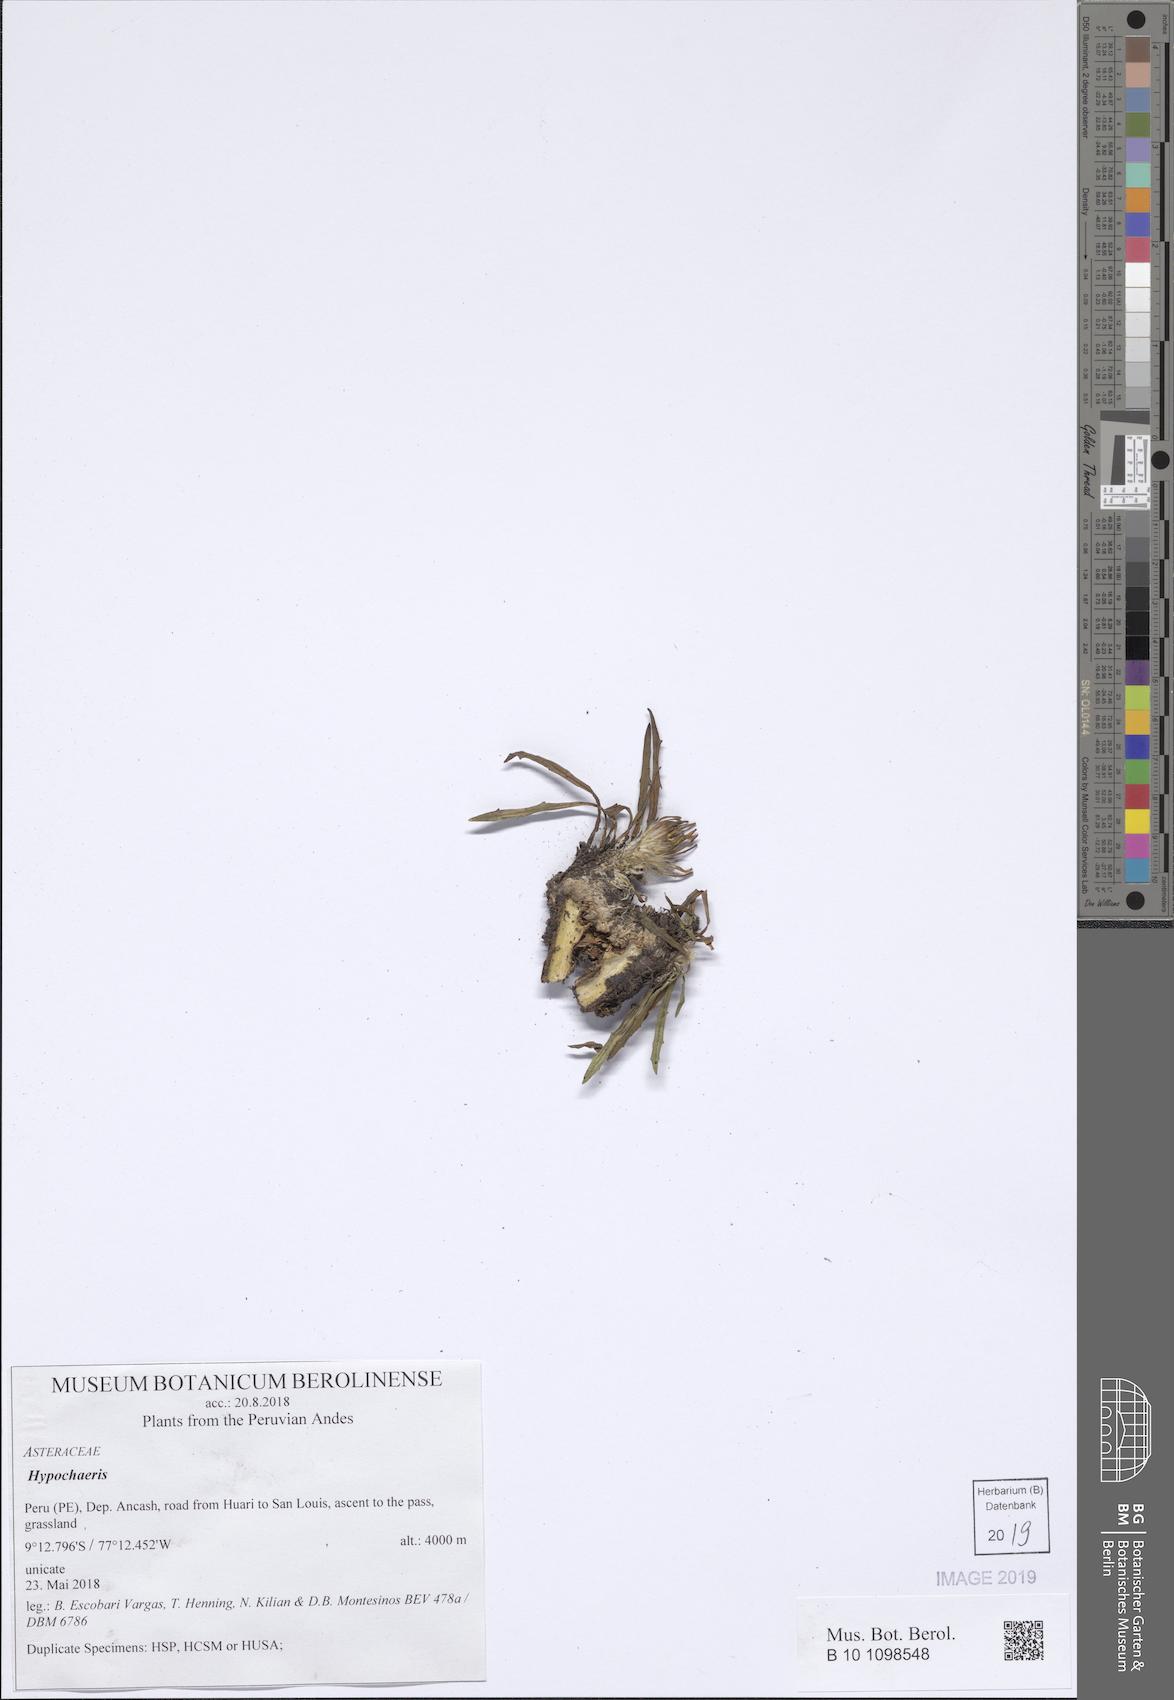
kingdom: Plantae
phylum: Tracheophyta
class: Magnoliopsida
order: Asterales
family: Asteraceae
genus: Hypochaeris
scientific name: Hypochaeris
